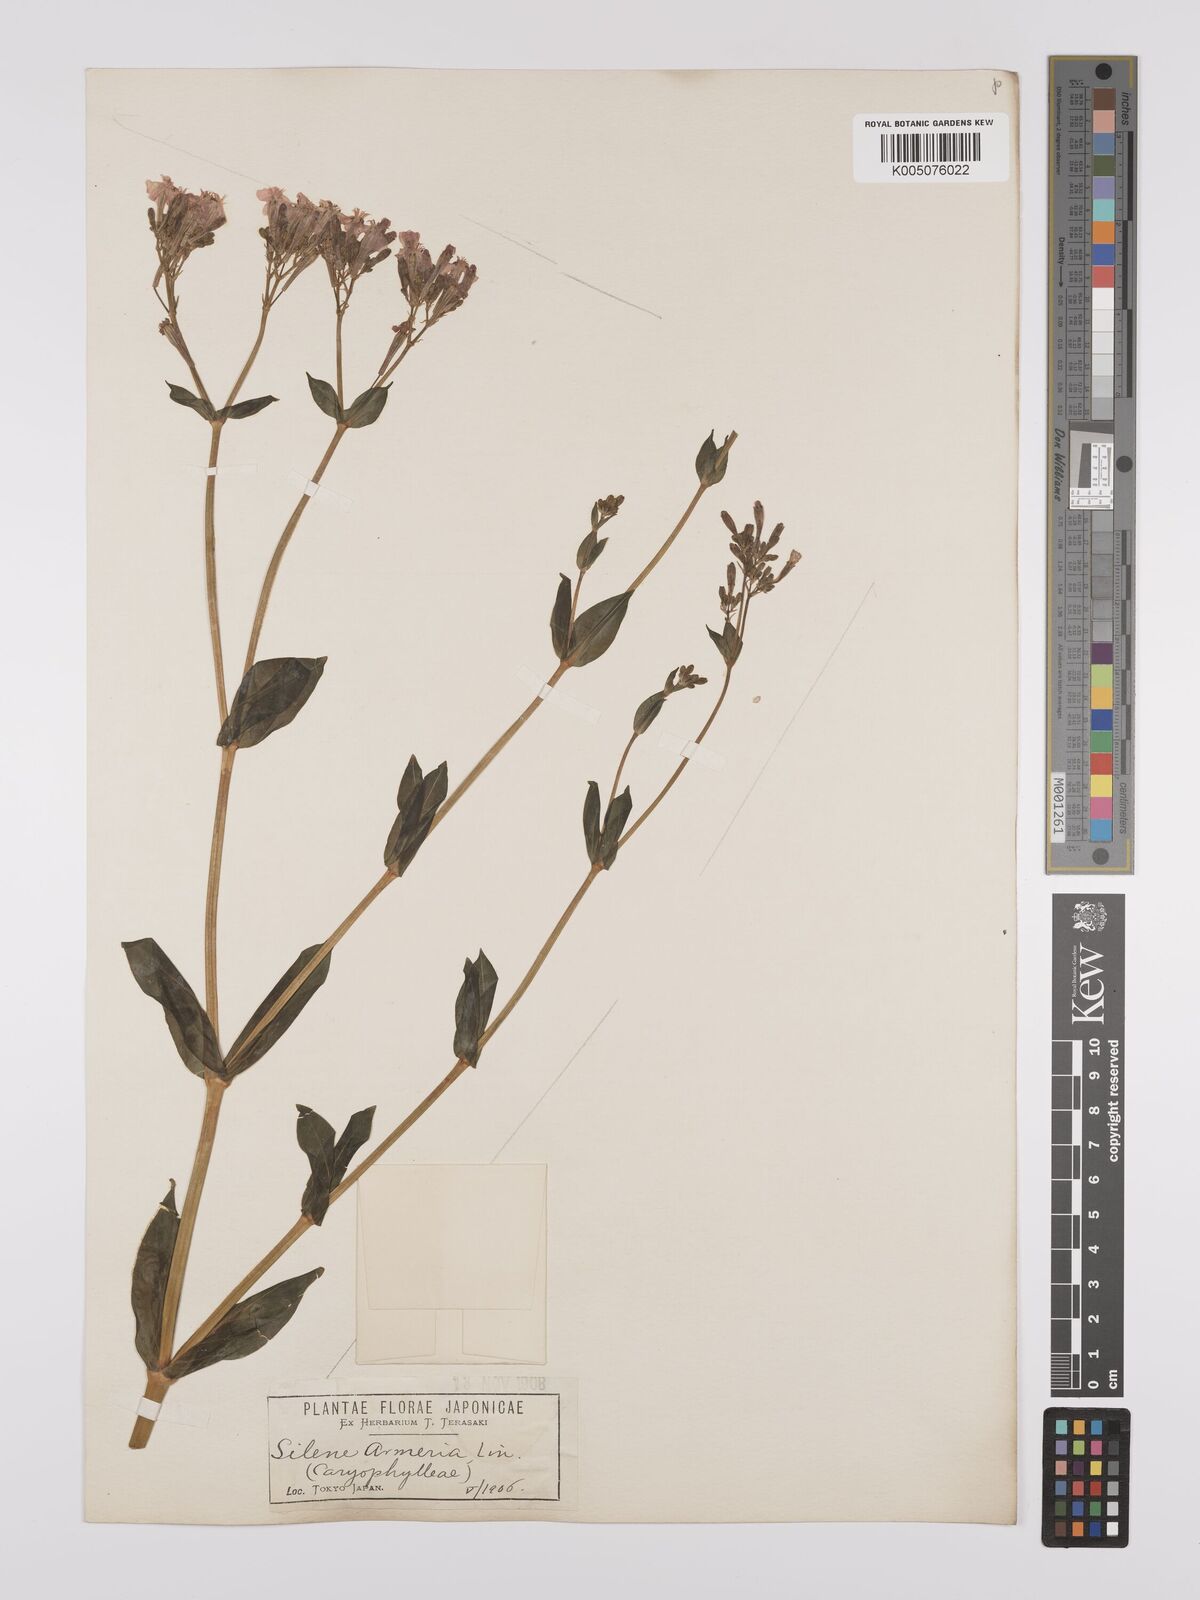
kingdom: Plantae
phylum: Tracheophyta
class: Magnoliopsida
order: Caryophyllales
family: Caryophyllaceae
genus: Silene
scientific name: Silene
